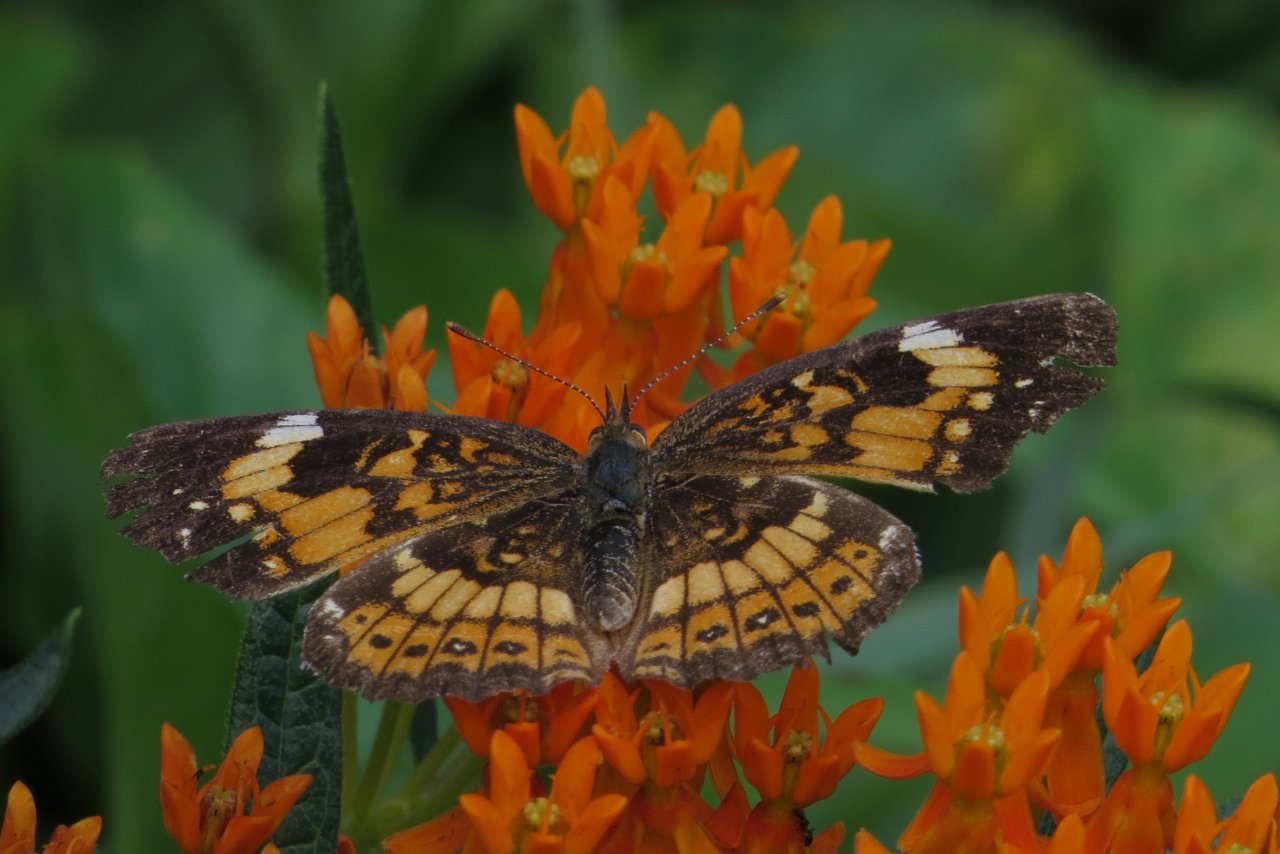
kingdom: Animalia
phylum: Arthropoda
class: Insecta
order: Lepidoptera
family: Nymphalidae
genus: Chlosyne
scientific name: Chlosyne nycteis
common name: Silvery Checkerspot
